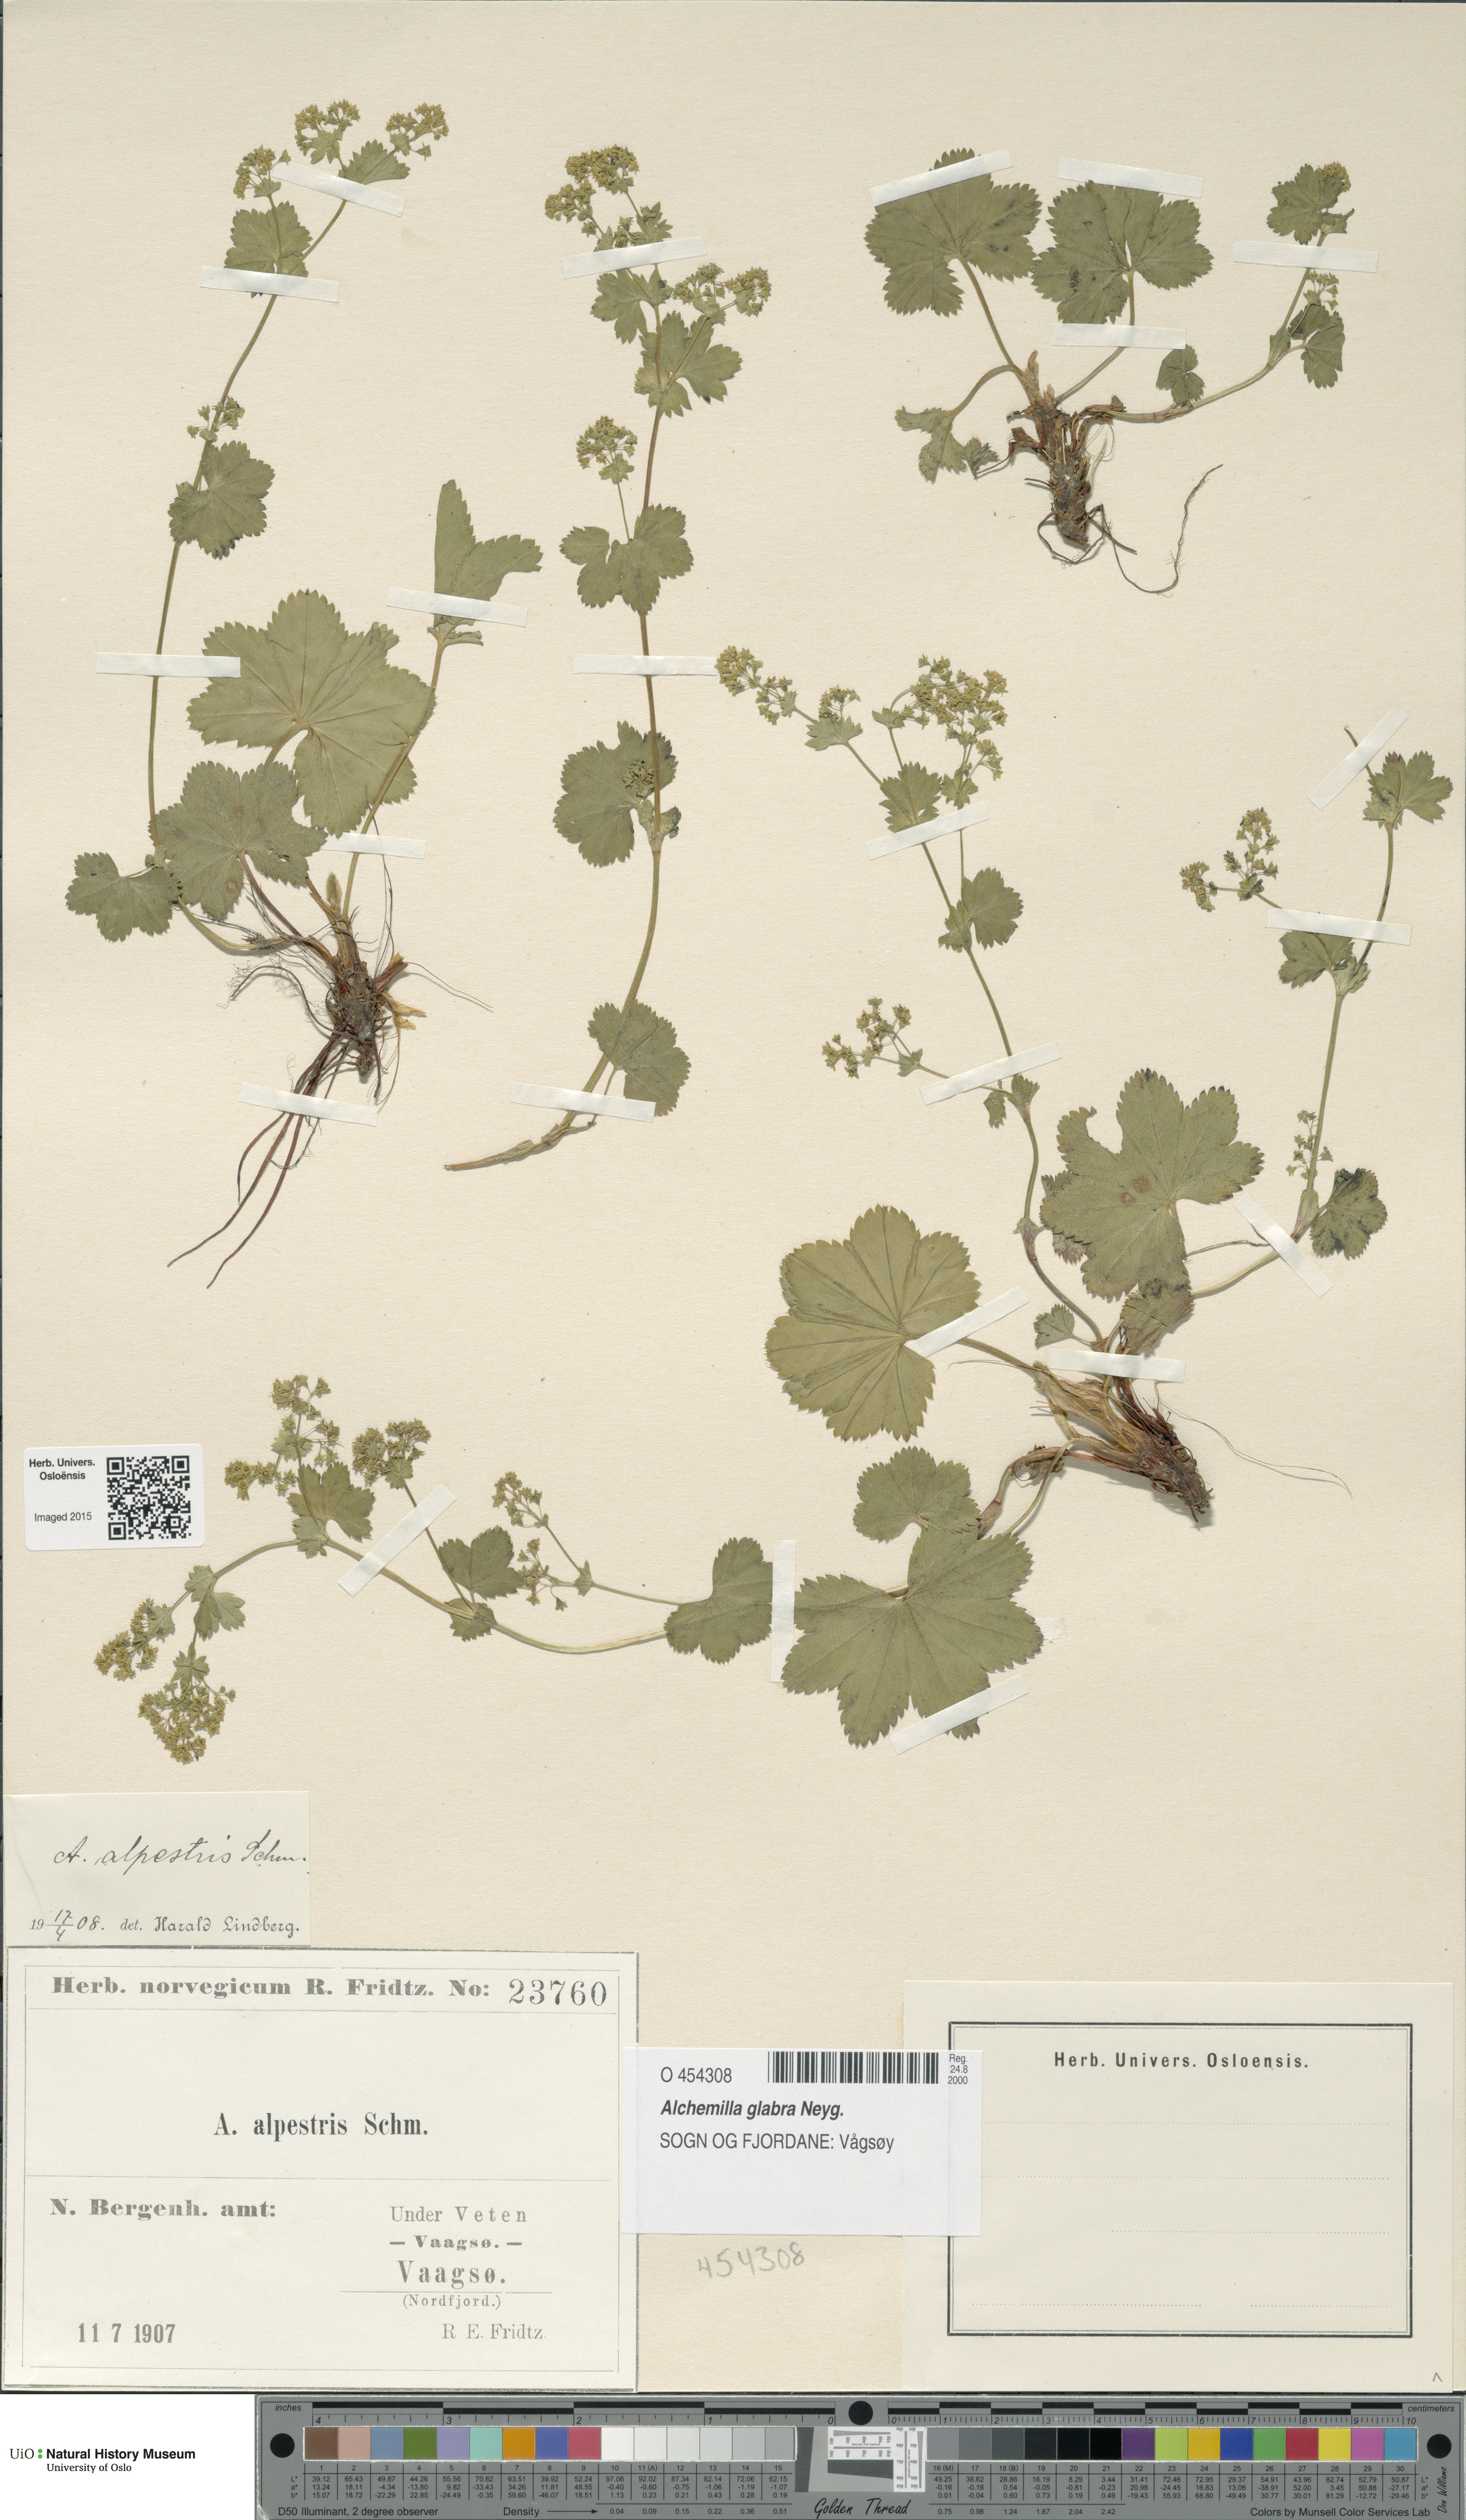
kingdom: Plantae
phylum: Tracheophyta
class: Magnoliopsida
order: Rosales
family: Rosaceae
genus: Alchemilla
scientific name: Alchemilla glabra
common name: Smooth lady's-mantle
